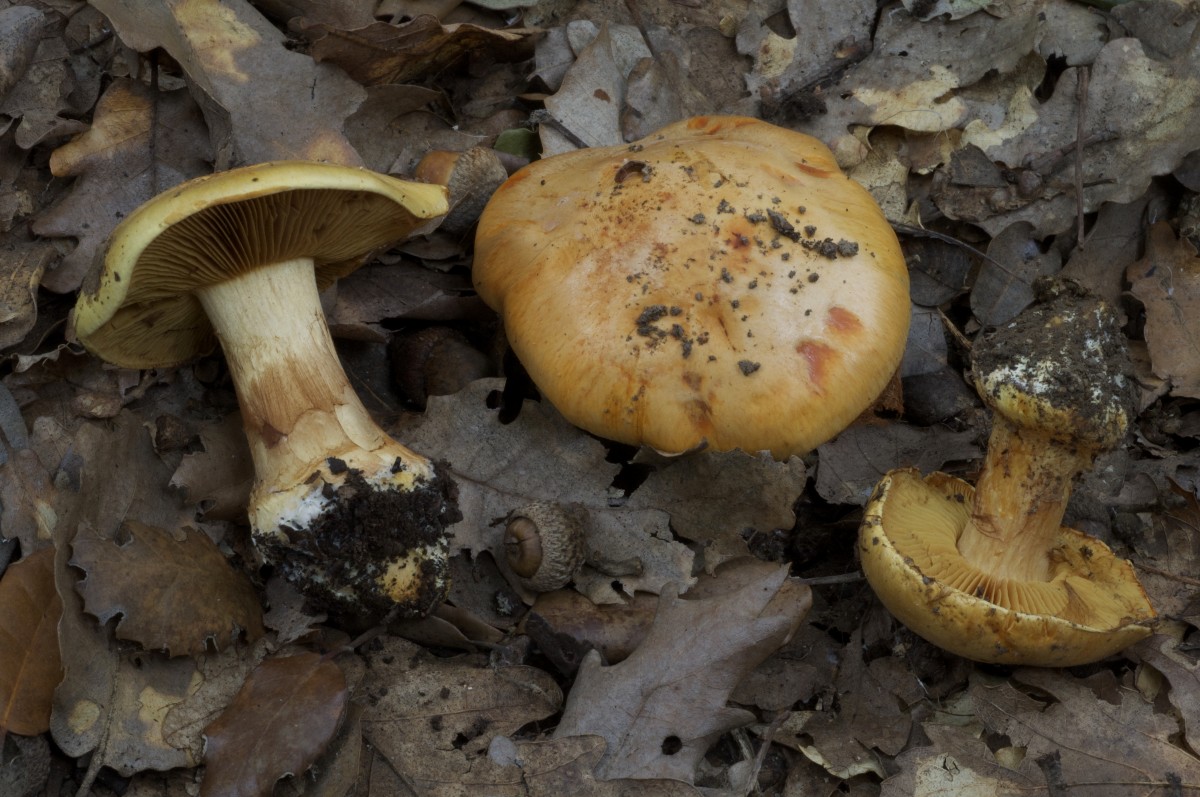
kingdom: Fungi
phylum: Basidiomycota
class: Agaricomycetes
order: Agaricales
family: Cortinariaceae
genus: Calonarius
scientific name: Calonarius olearioides
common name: safran-slørhat
